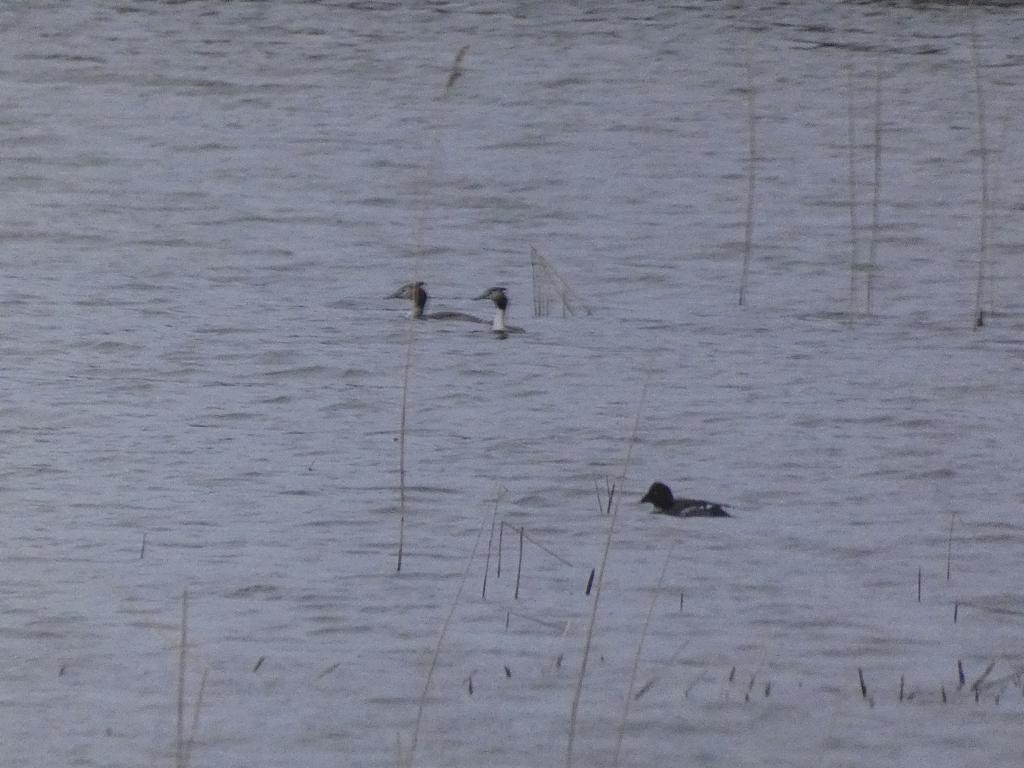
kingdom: Animalia
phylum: Chordata
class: Aves
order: Anseriformes
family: Anatidae
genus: Bucephala
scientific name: Bucephala clangula
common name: Hvinand
